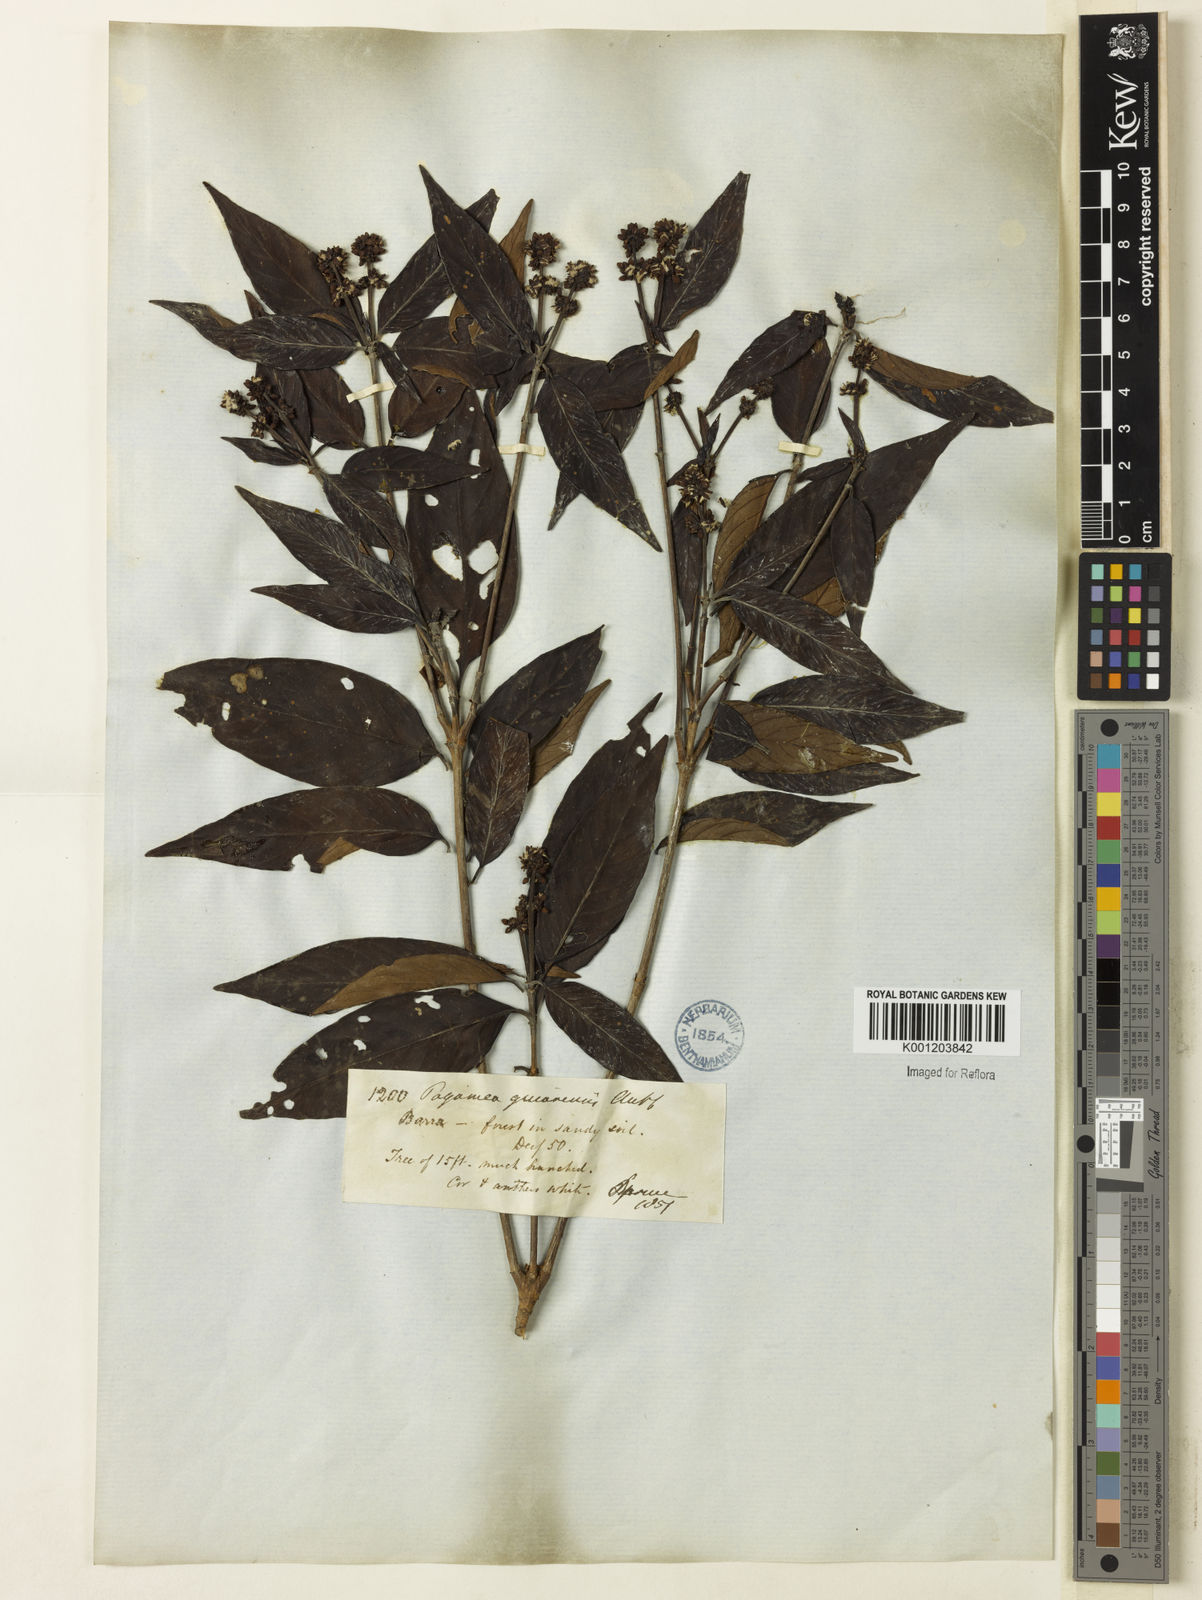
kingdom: Plantae
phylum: Tracheophyta
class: Magnoliopsida
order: Gentianales
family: Rubiaceae
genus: Pagamea
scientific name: Pagamea guianensis
